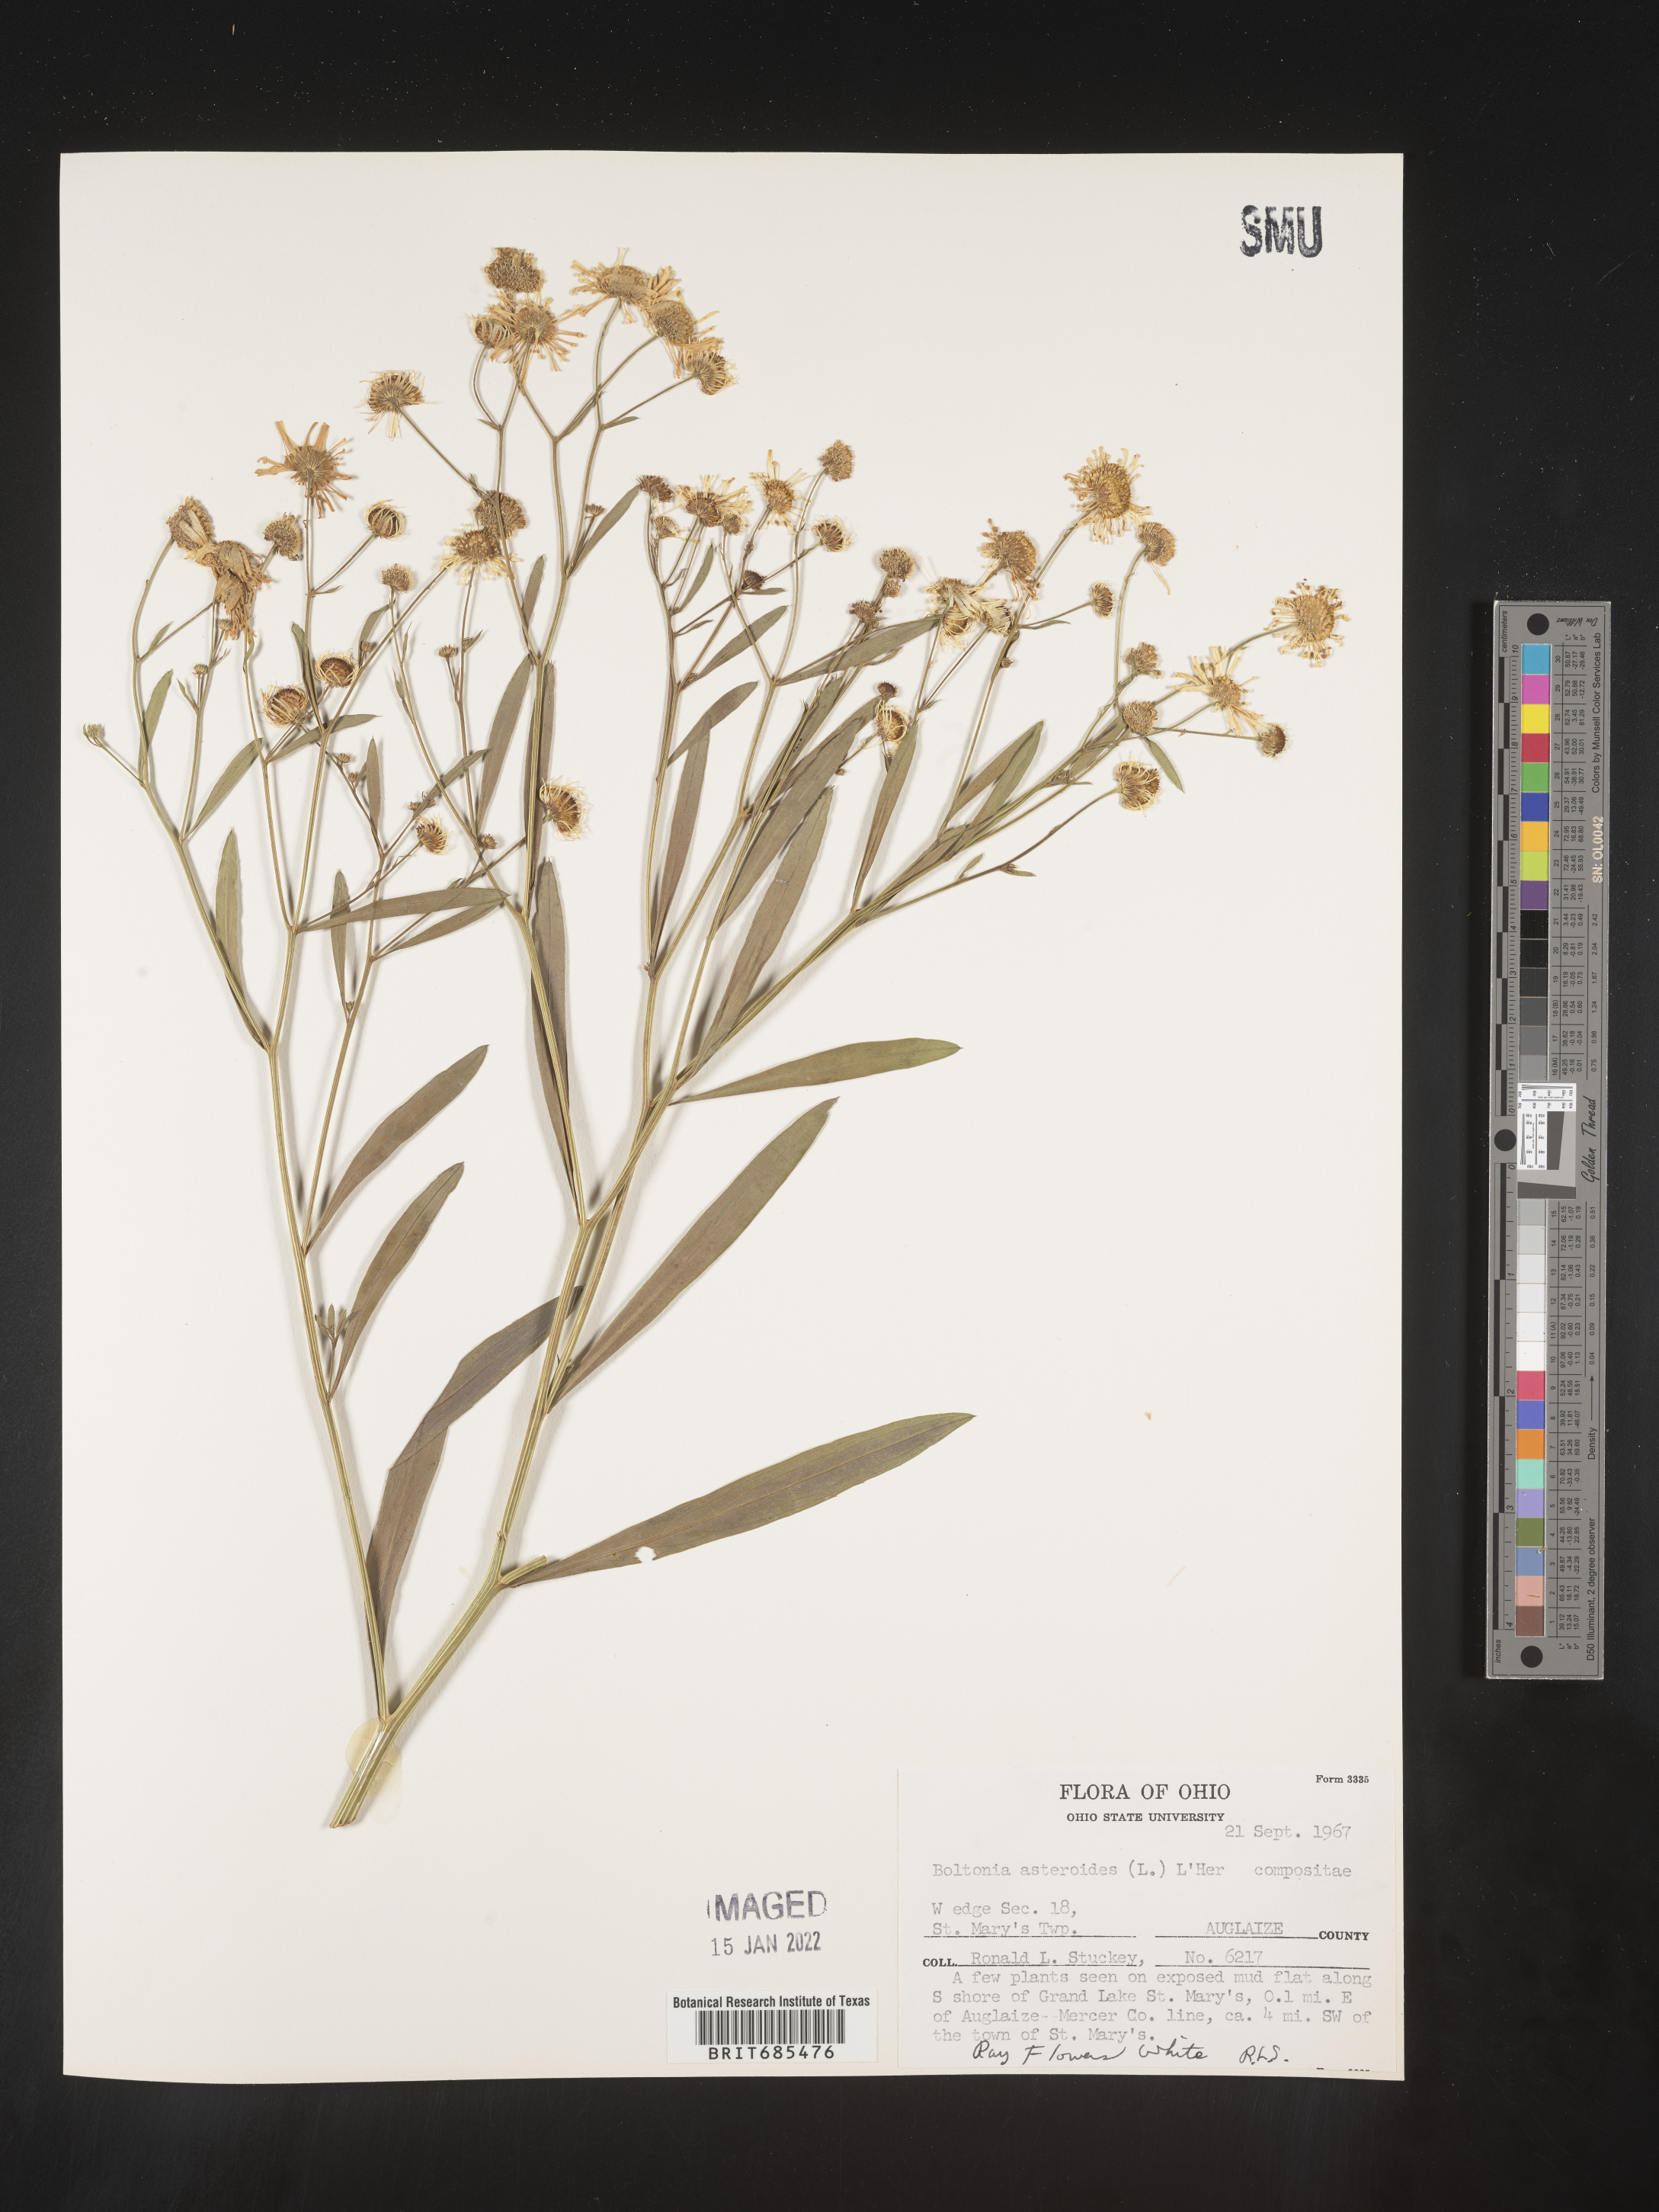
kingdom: Plantae
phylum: Tracheophyta
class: Magnoliopsida
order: Asterales
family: Asteraceae
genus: Boltonia
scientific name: Boltonia asteroides
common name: False chamomile
